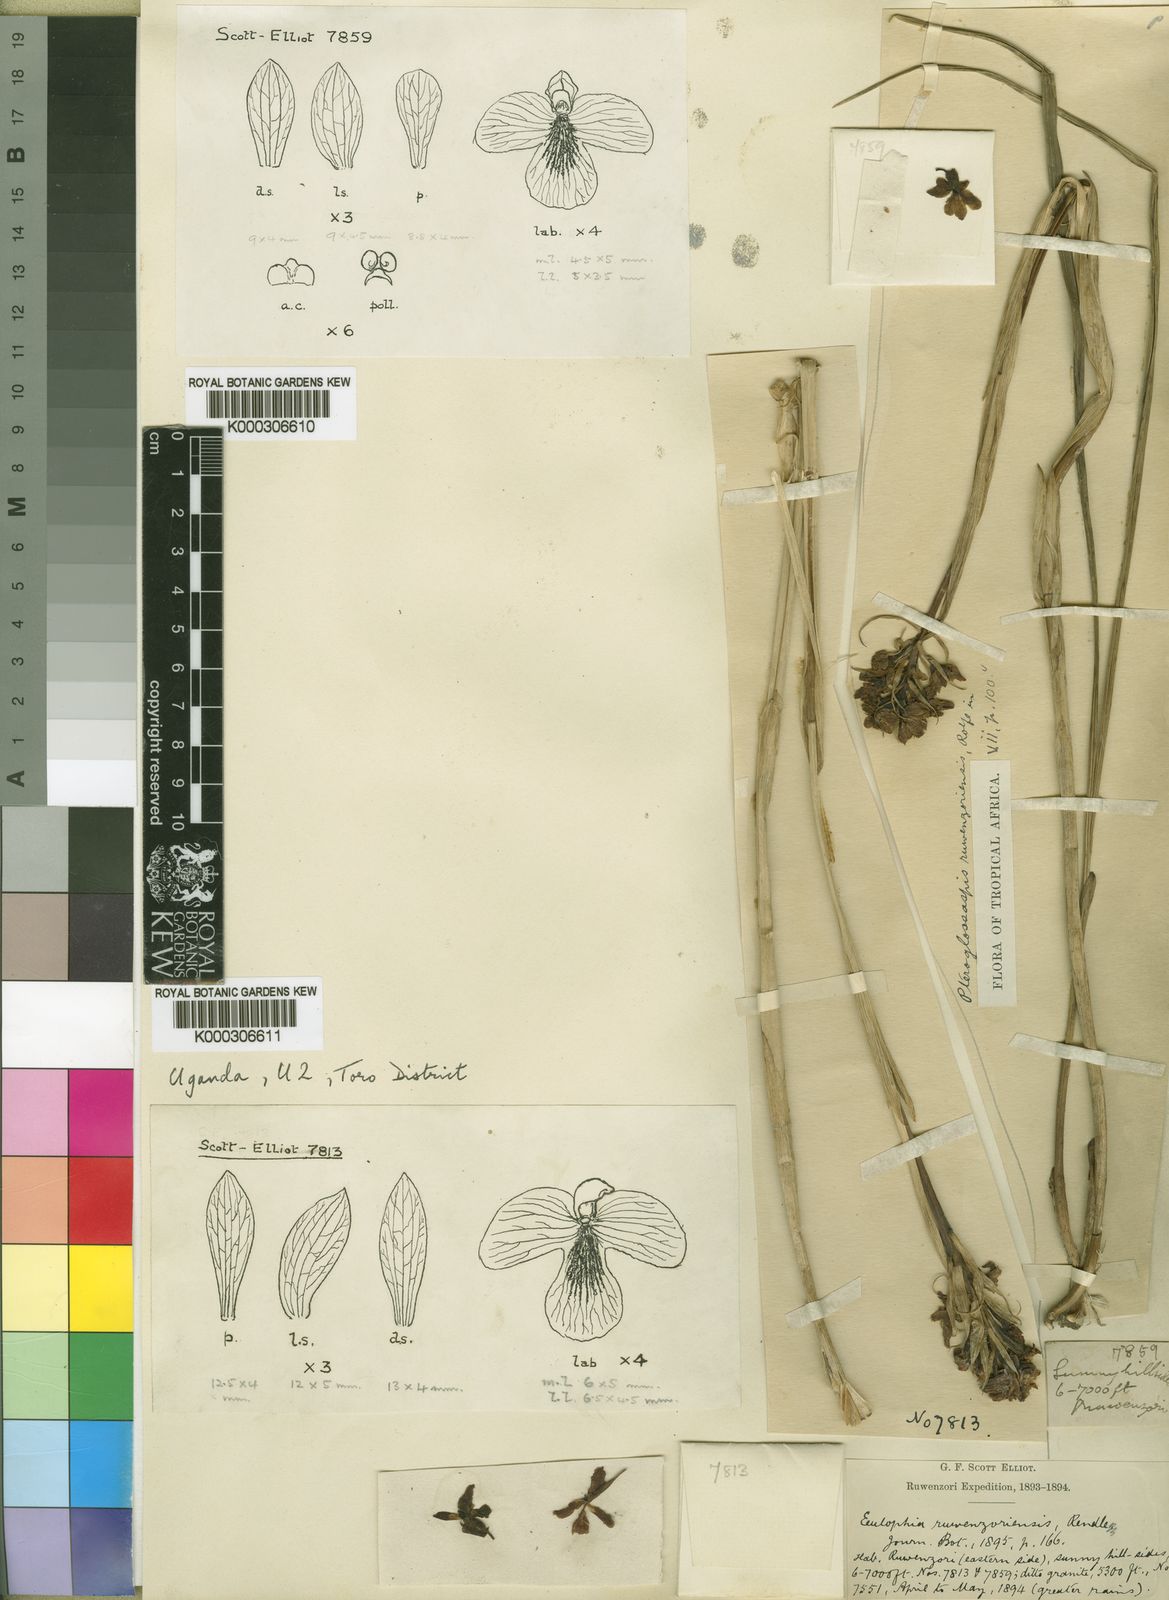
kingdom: Plantae
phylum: Tracheophyta
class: Liliopsida
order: Asparagales
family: Orchidaceae
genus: Eulophia
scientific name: Eulophia ruwenzoriensis
